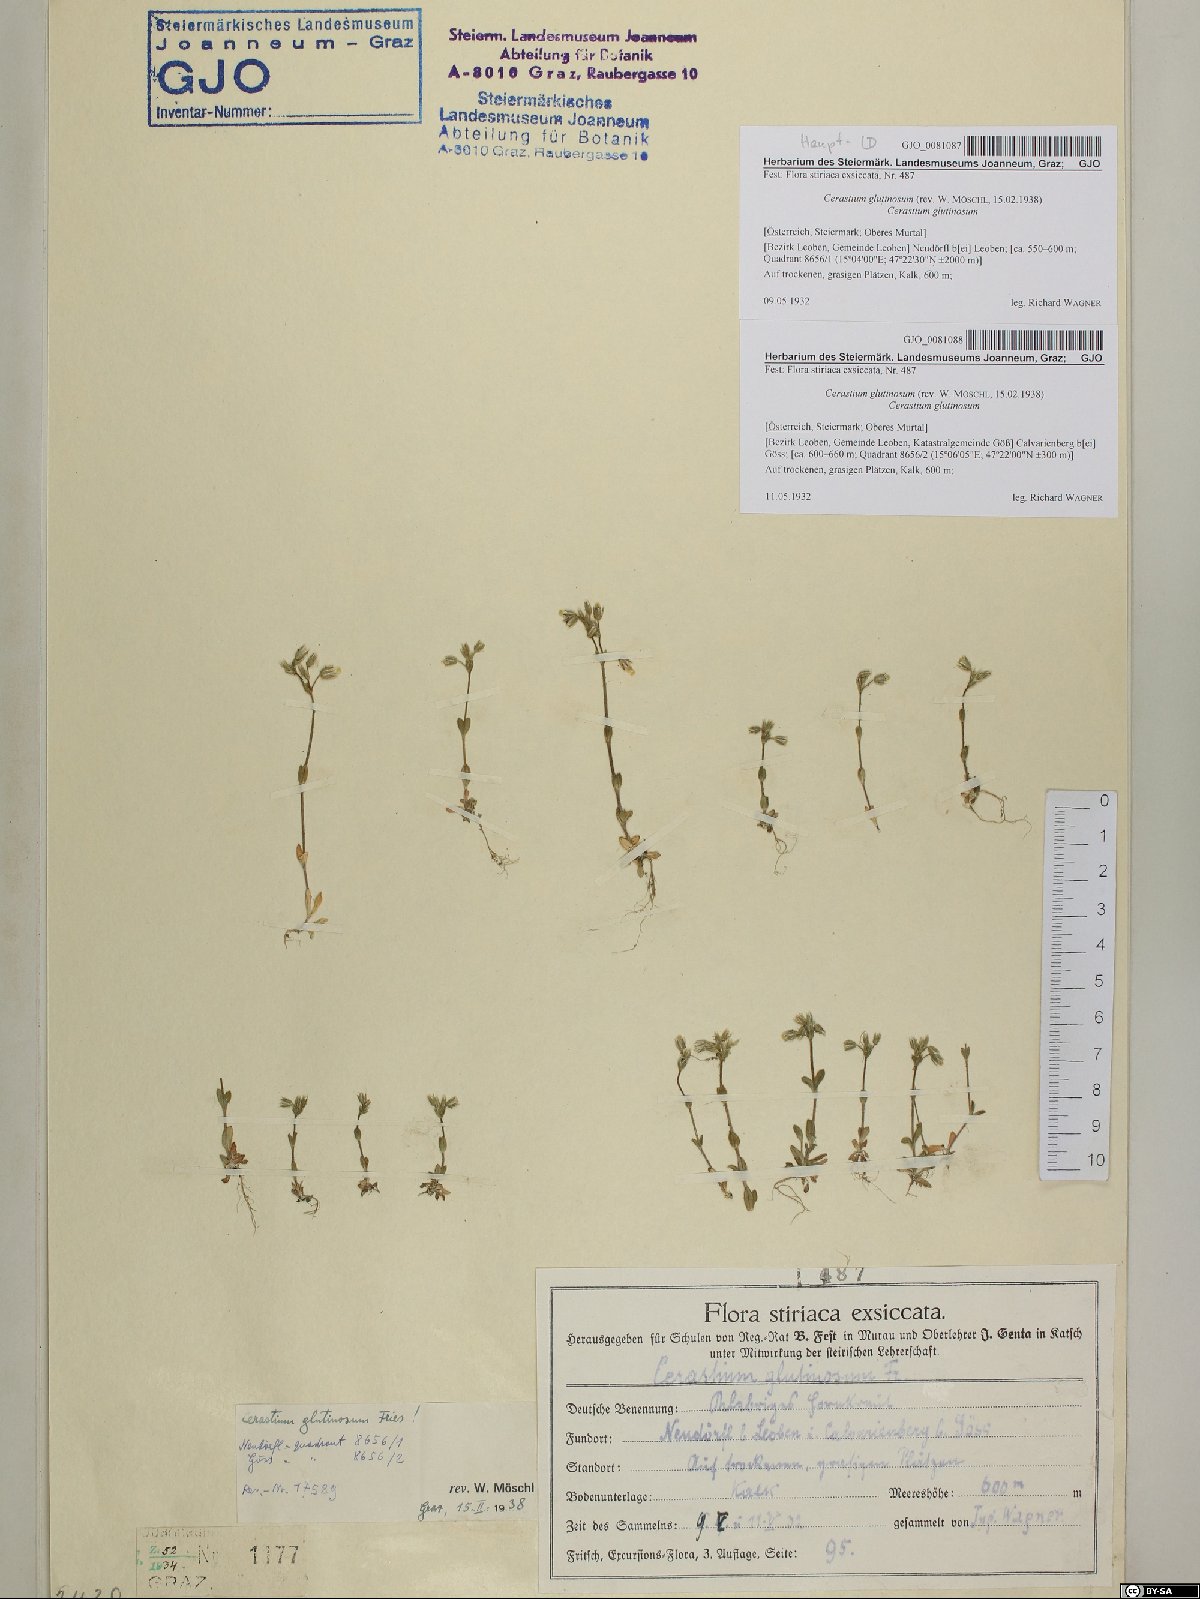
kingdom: Plantae
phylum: Tracheophyta
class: Magnoliopsida
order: Caryophyllales
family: Caryophyllaceae
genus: Cerastium
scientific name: Cerastium glutinosum
